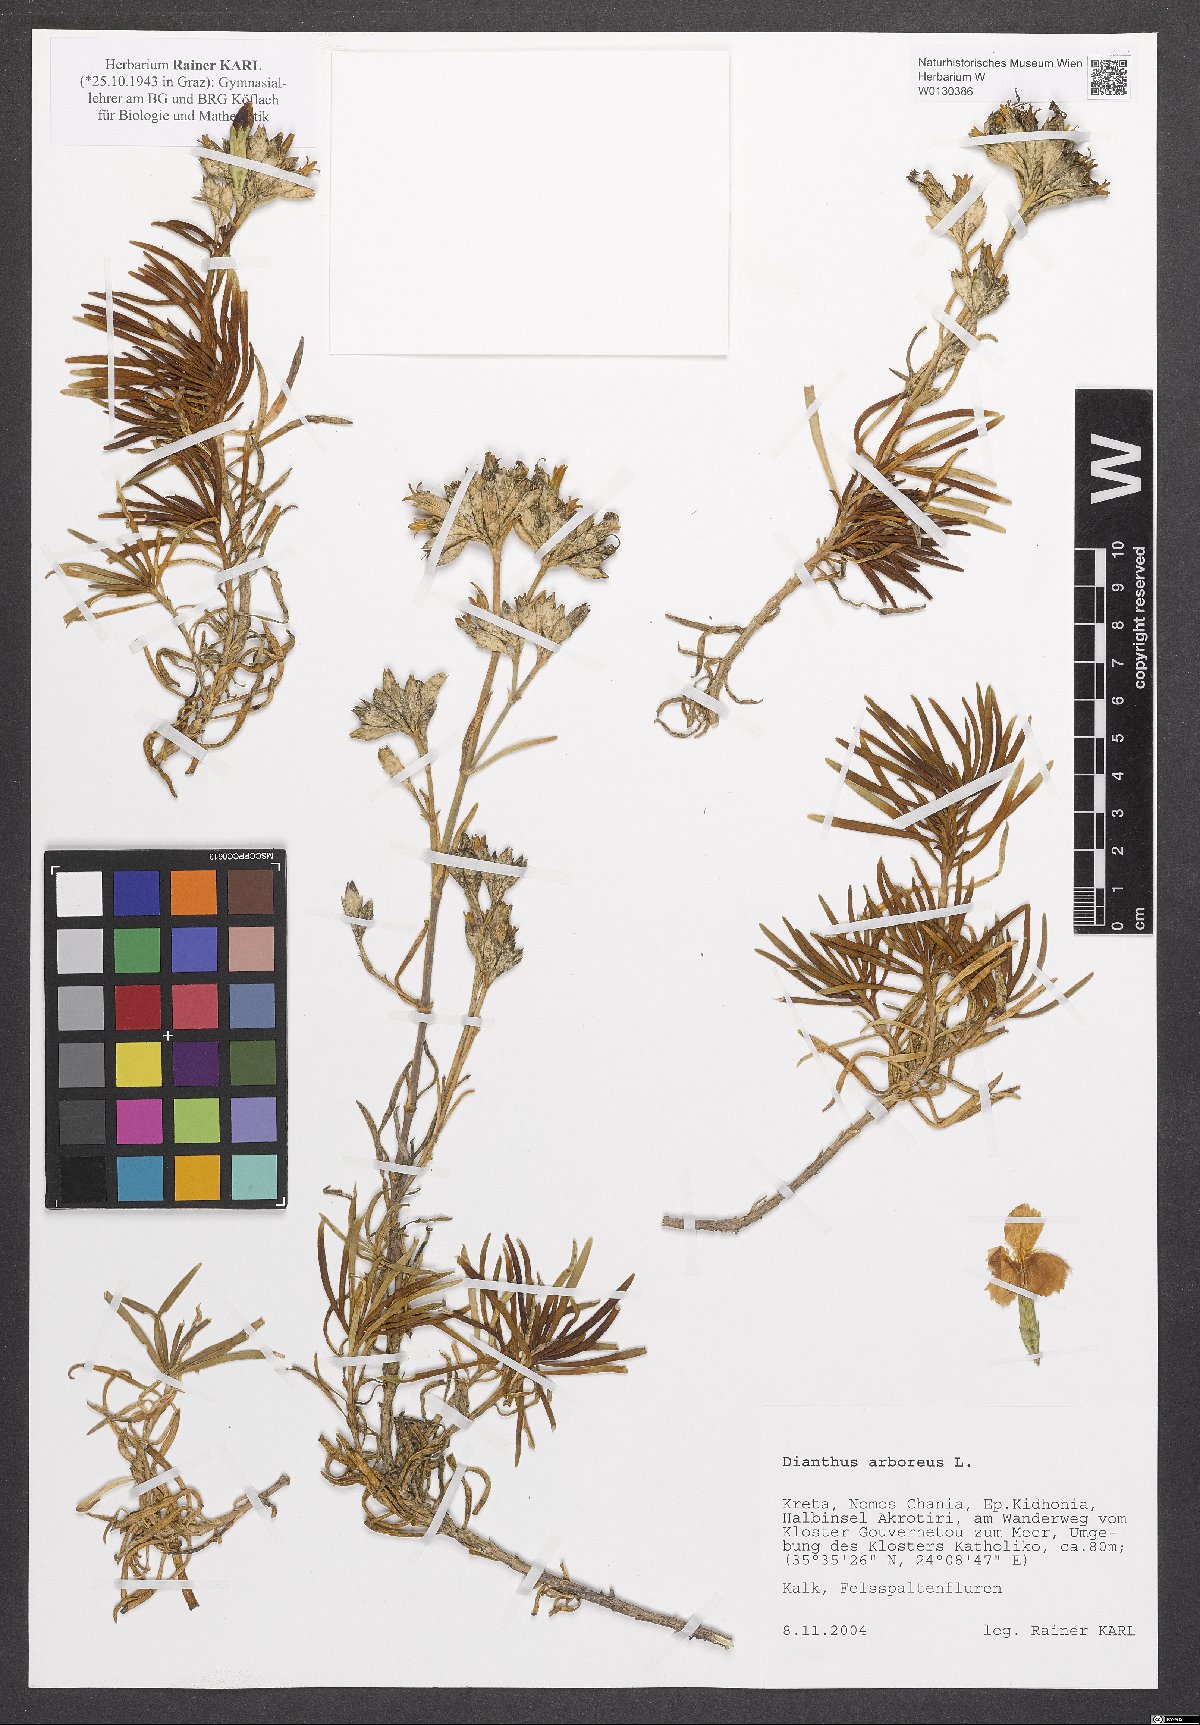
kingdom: Plantae
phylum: Tracheophyta
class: Magnoliopsida
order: Caryophyllales
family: Caryophyllaceae
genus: Dianthus
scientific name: Dianthus juniperinus
